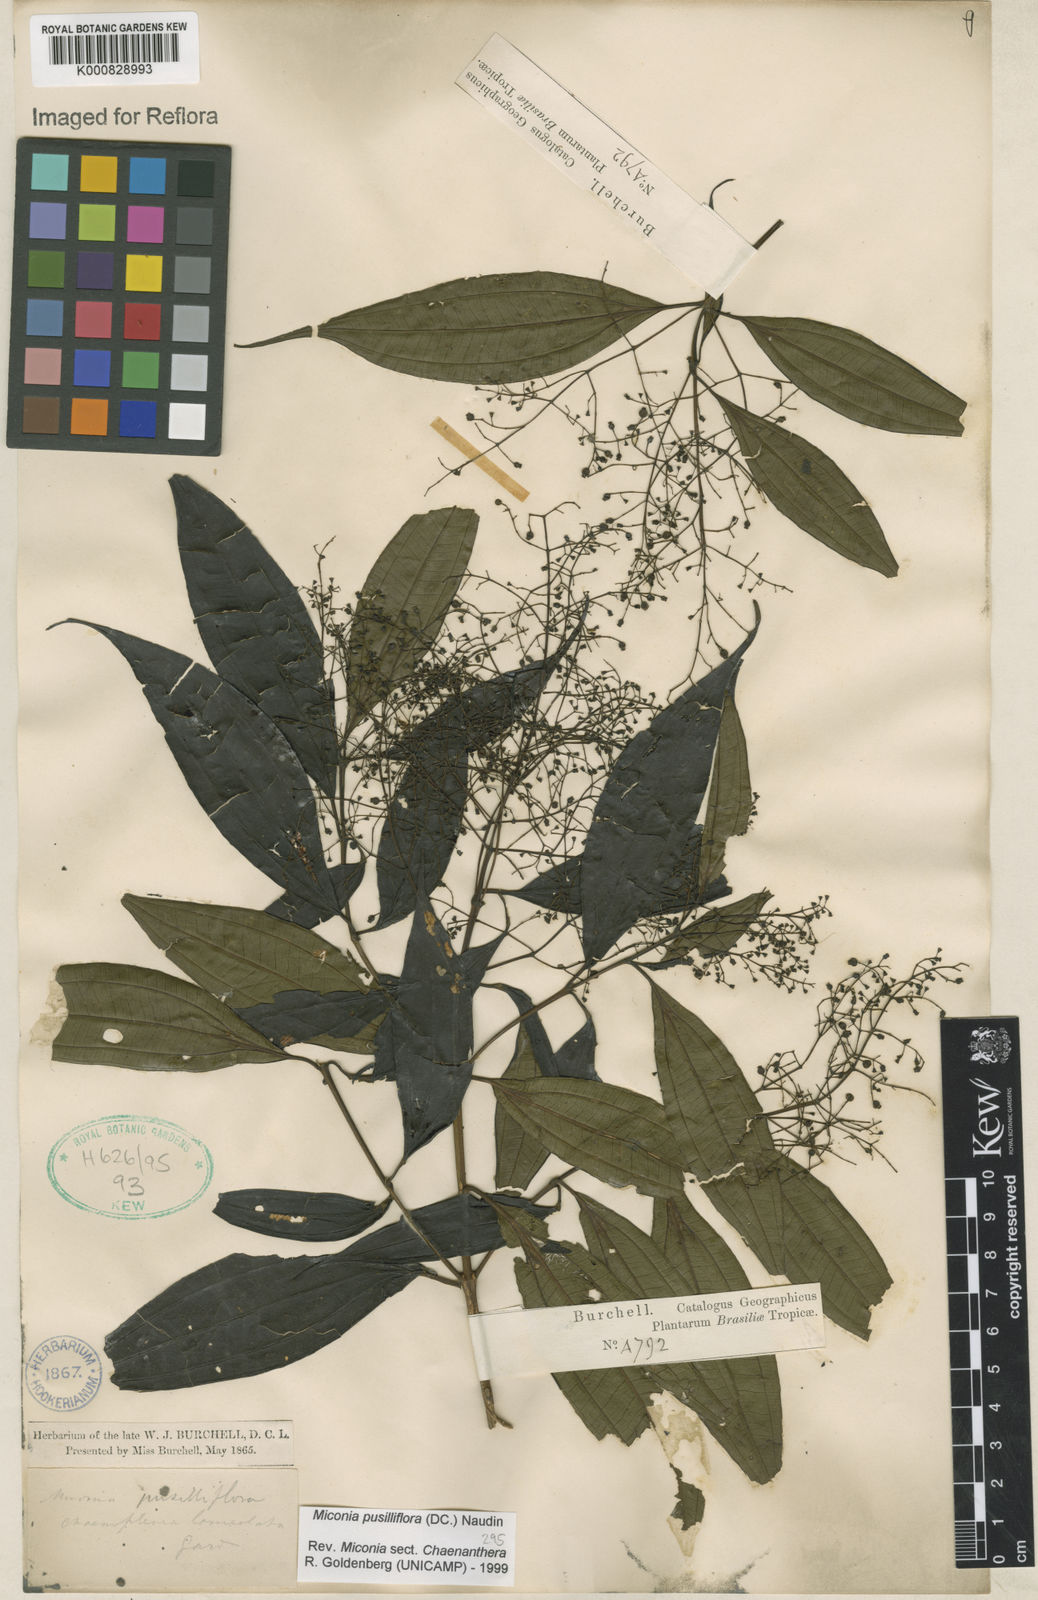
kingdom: Plantae
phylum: Tracheophyta
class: Magnoliopsida
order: Myrtales
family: Melastomataceae
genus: Miconia
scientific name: Miconia pusilliflora
